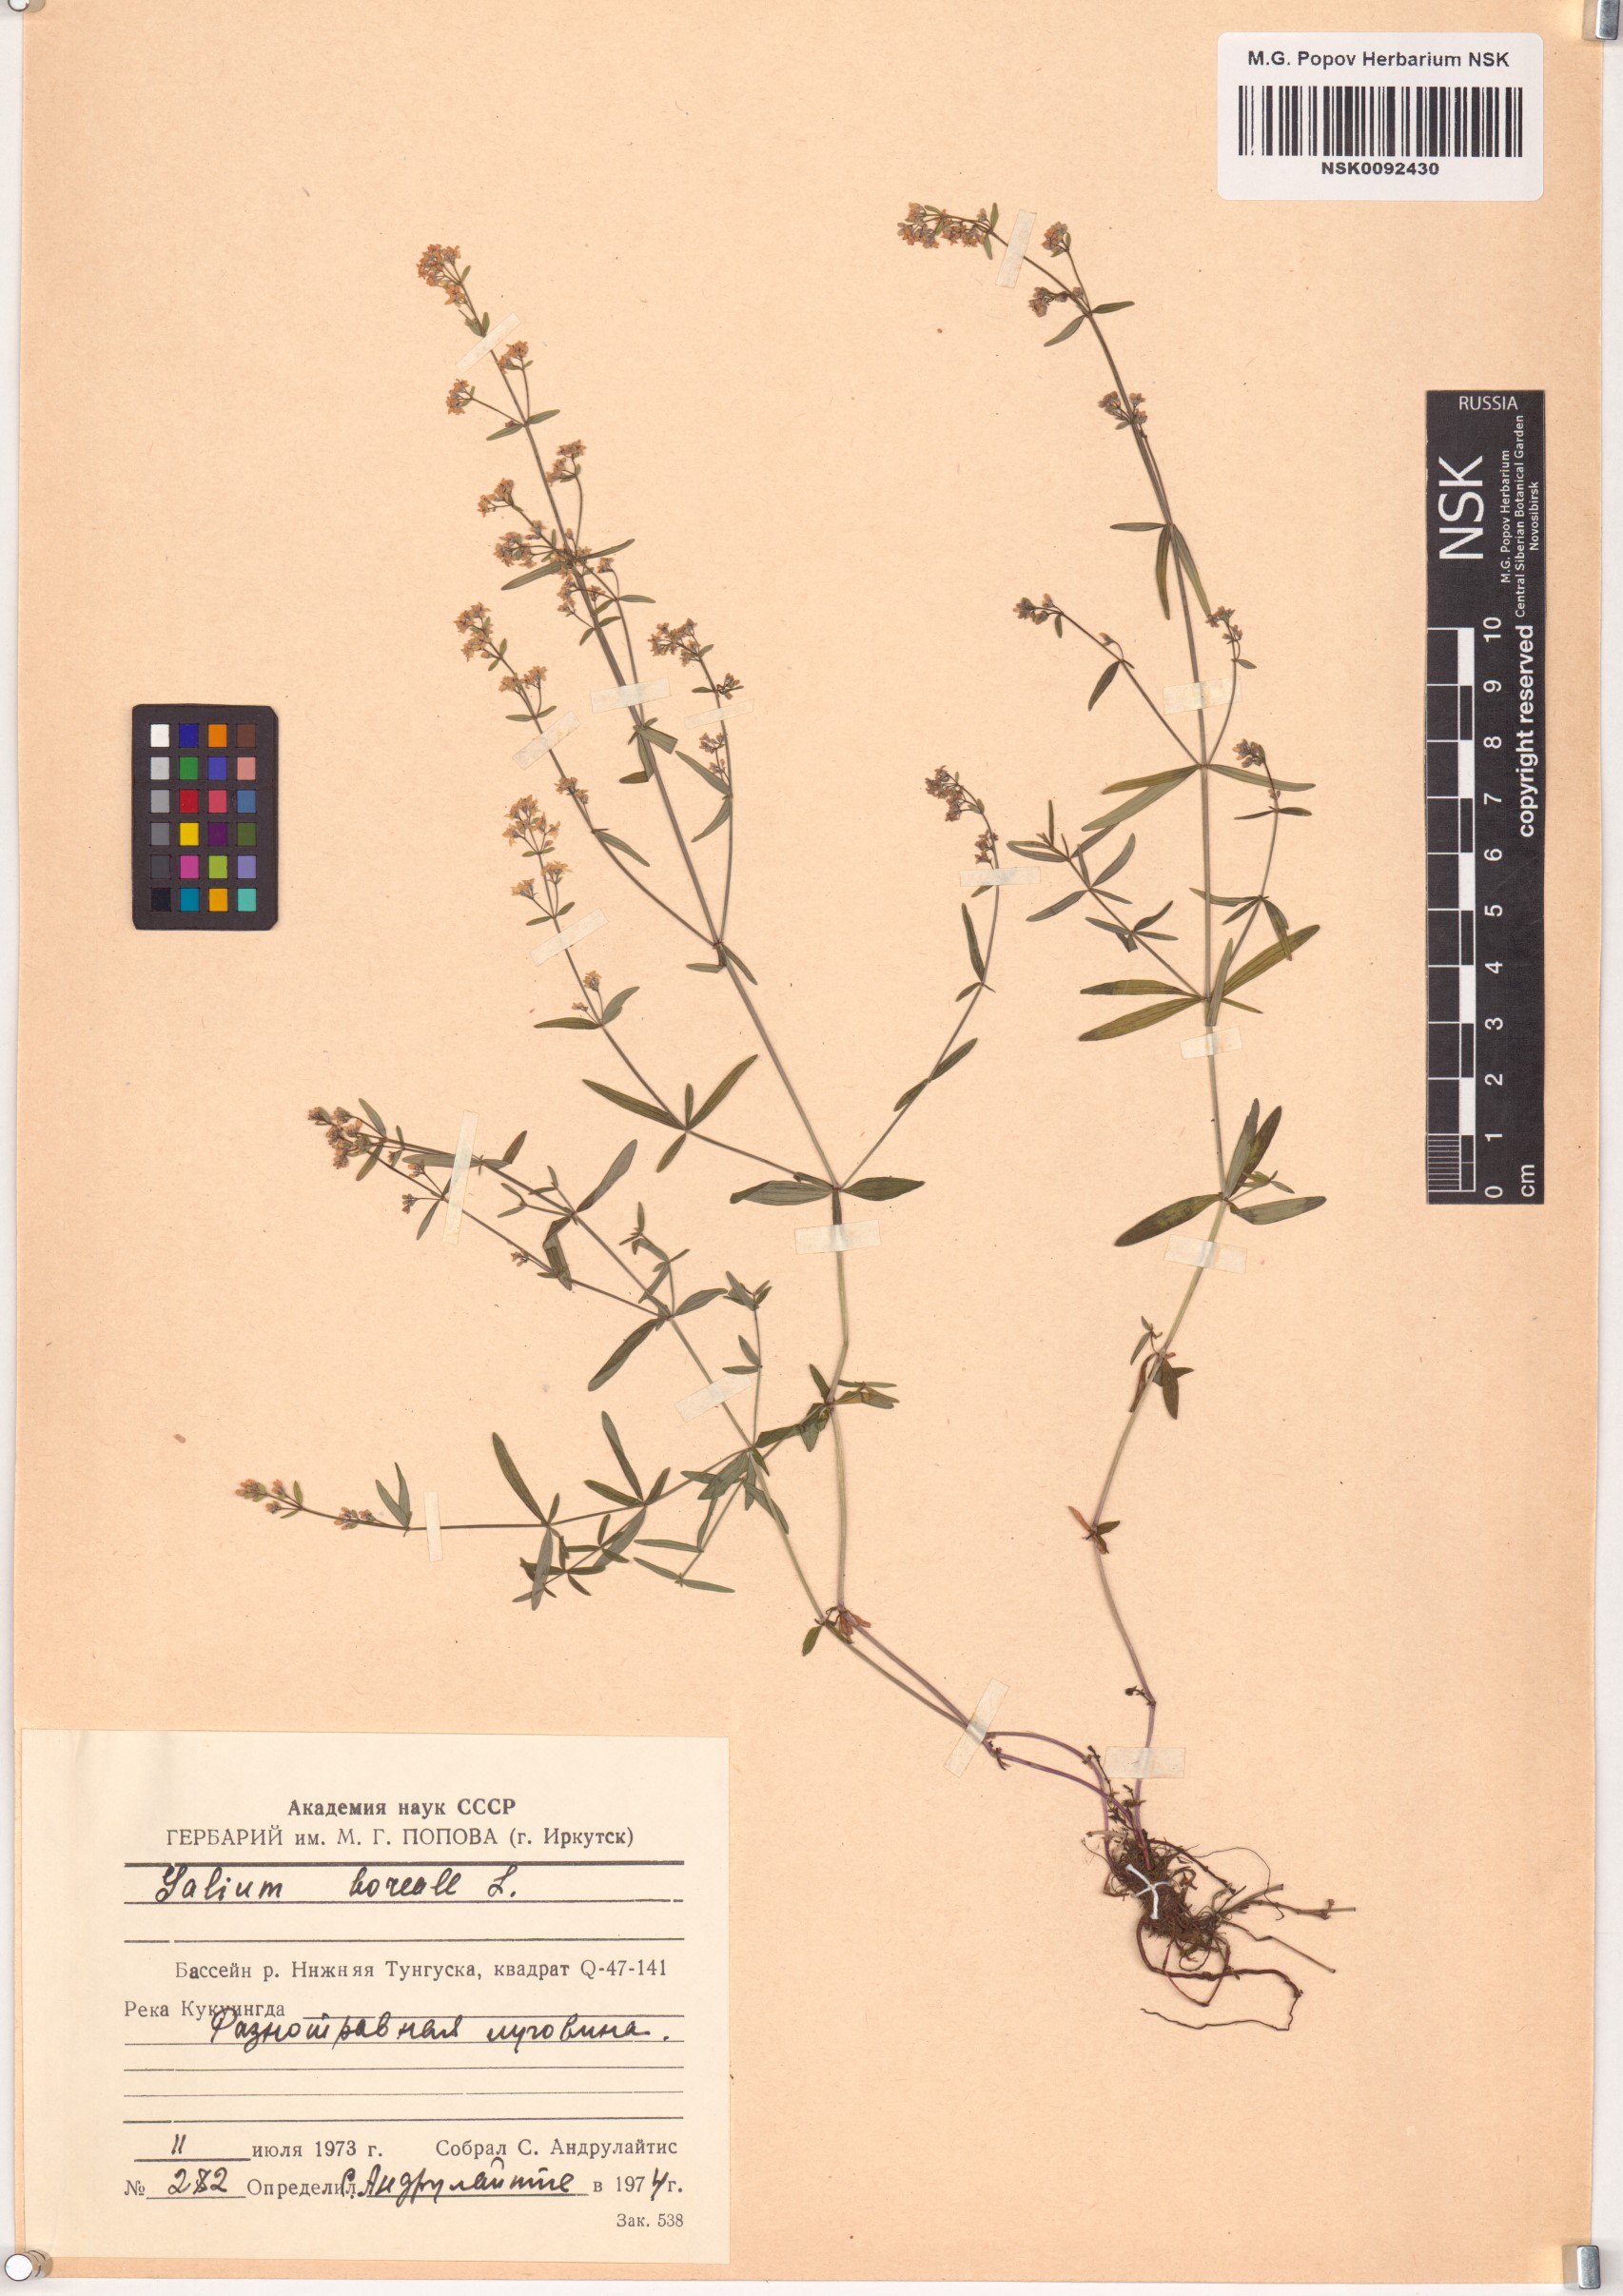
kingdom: Plantae
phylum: Tracheophyta
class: Magnoliopsida
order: Gentianales
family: Rubiaceae
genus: Galium
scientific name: Galium boreale
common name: Northern bedstraw
